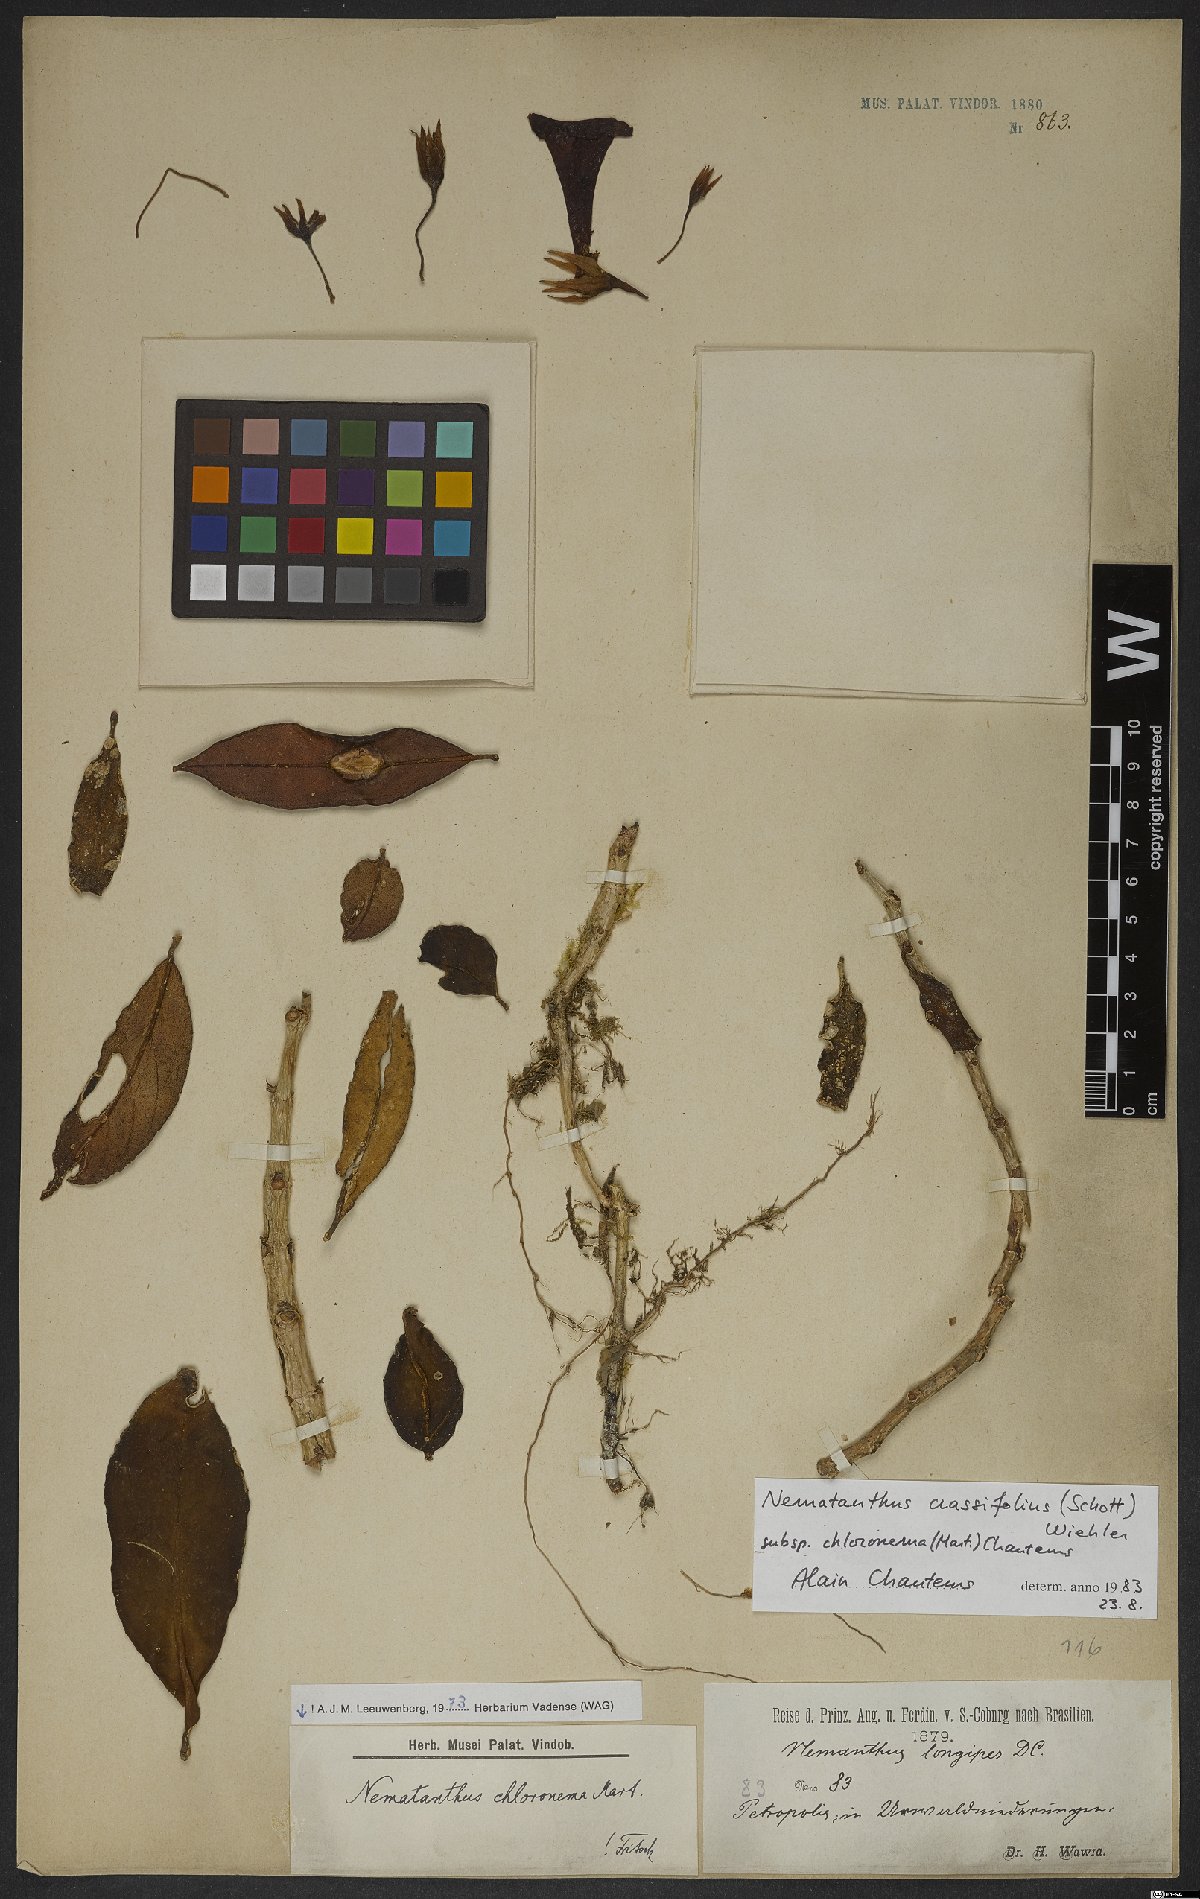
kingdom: Plantae
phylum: Tracheophyta
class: Magnoliopsida
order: Lamiales
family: Gesneriaceae
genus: Nematanthus
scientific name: Nematanthus crassifolius
